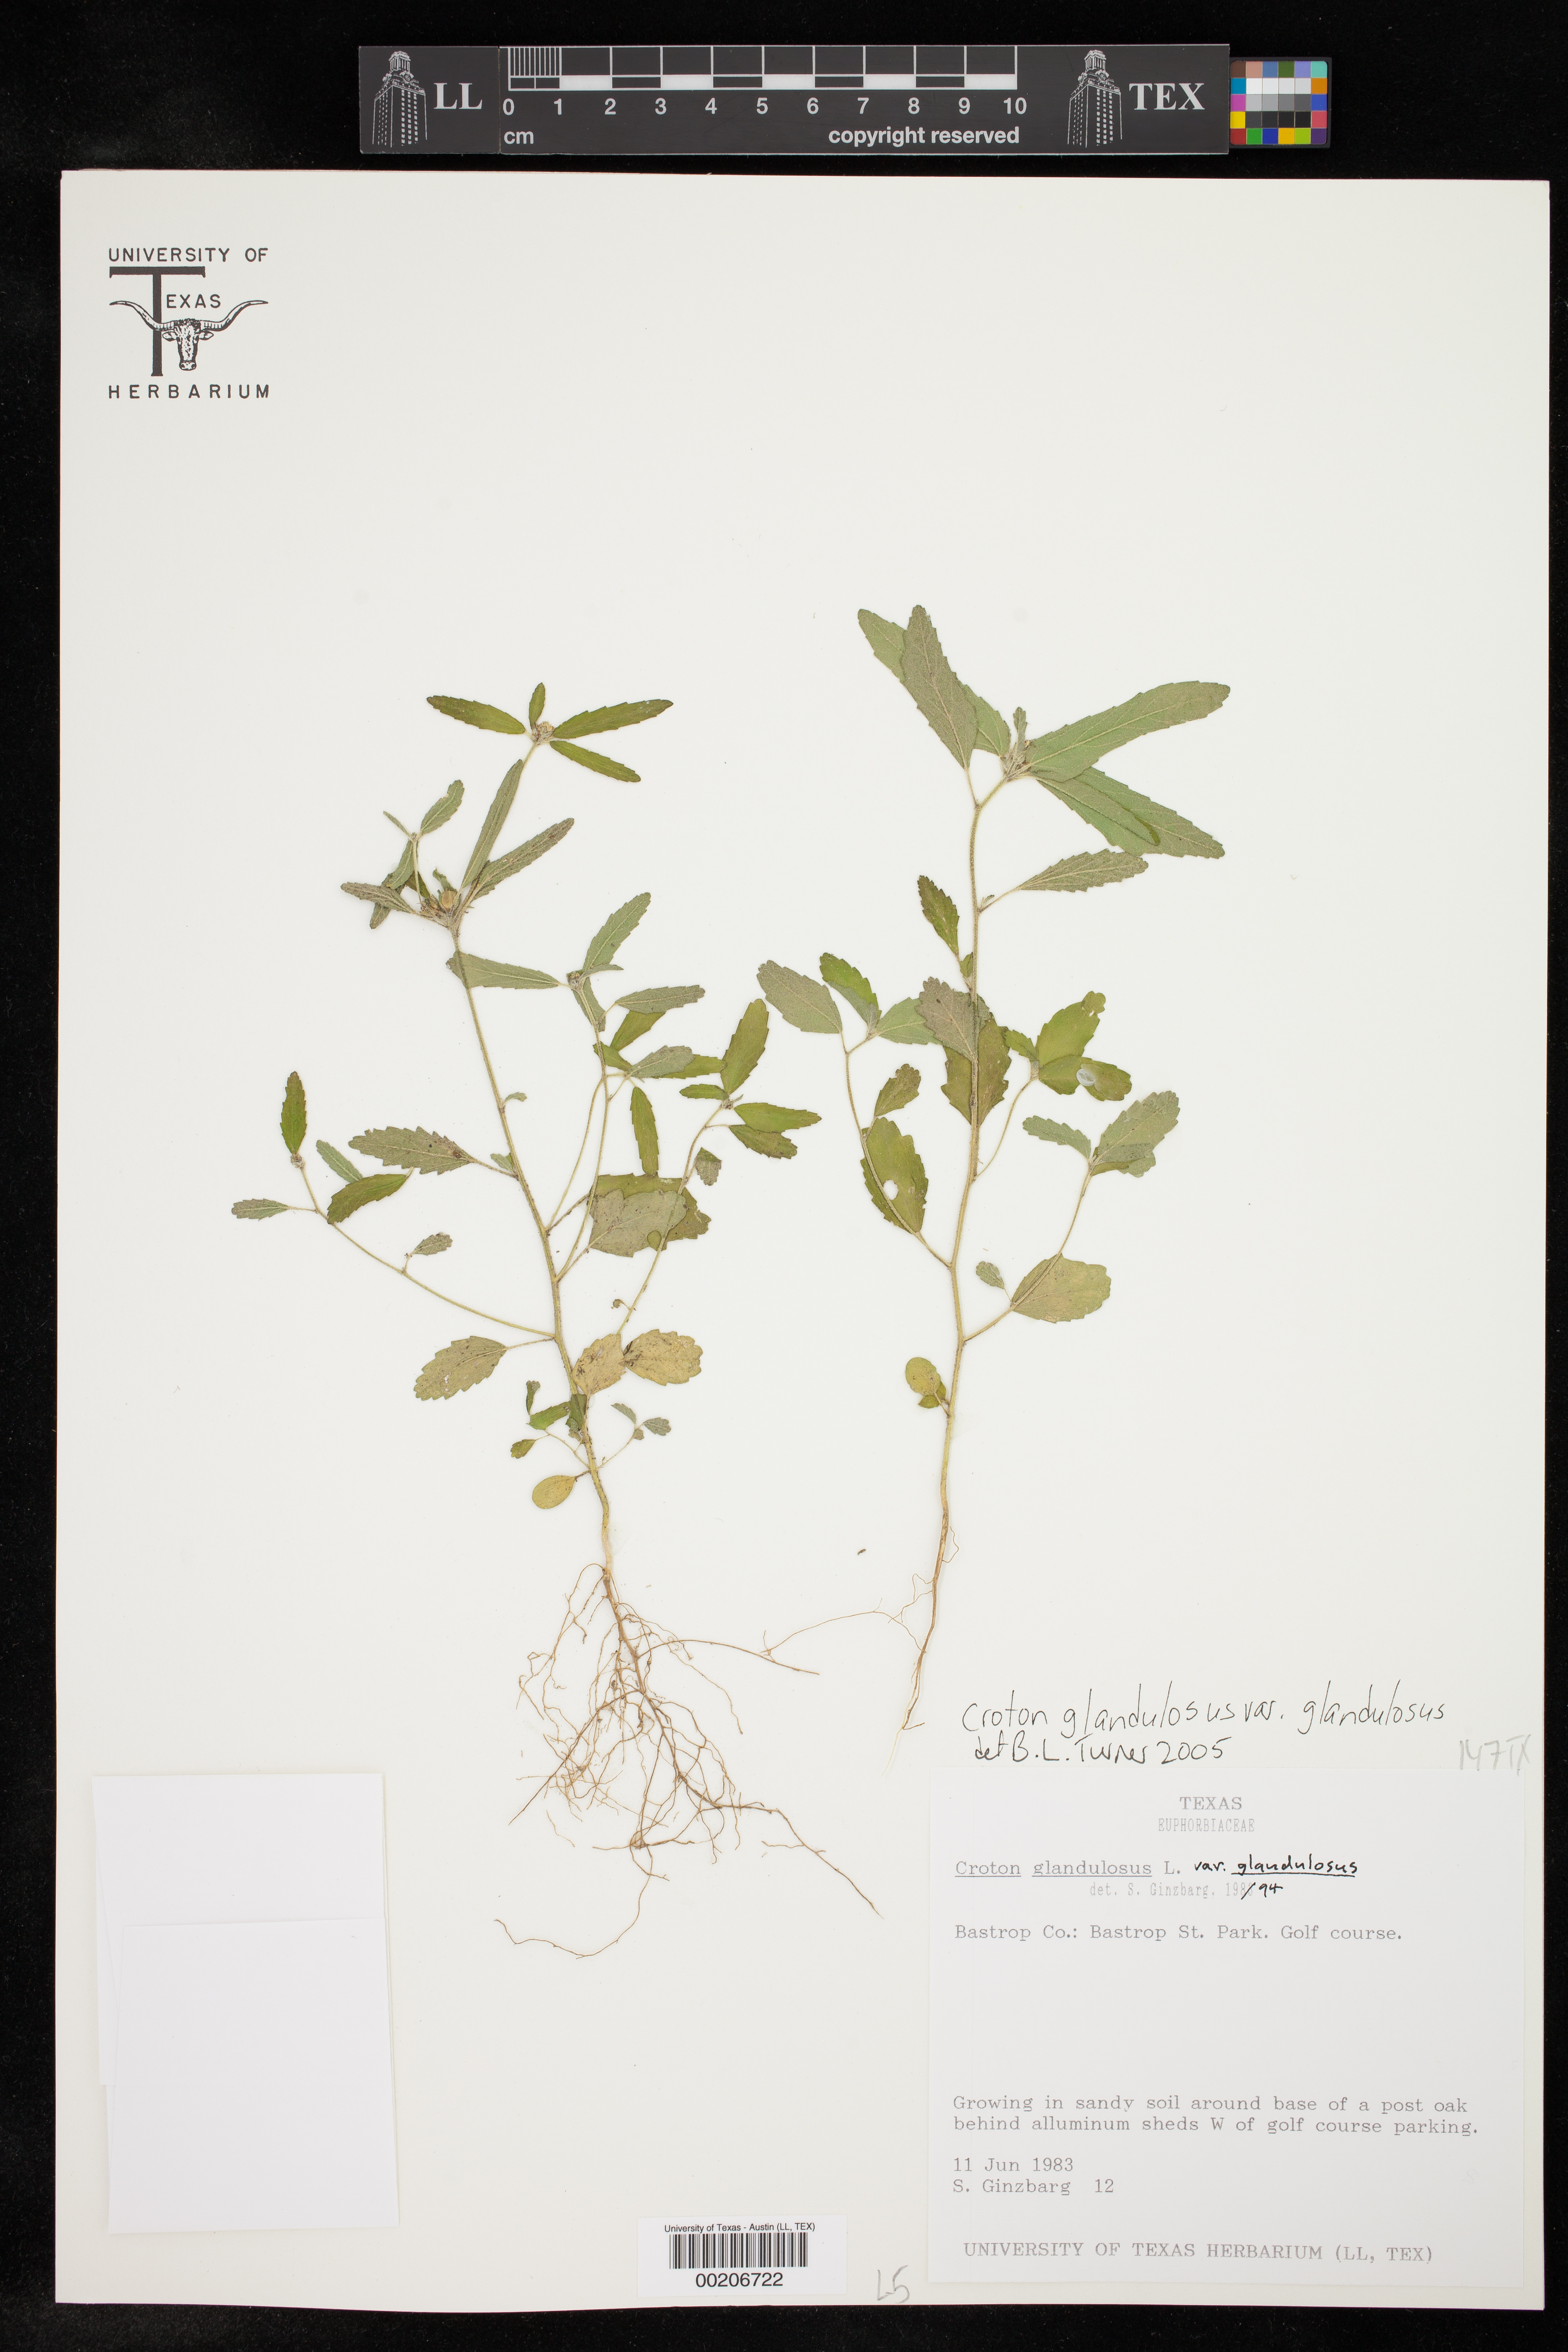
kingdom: Plantae
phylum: Tracheophyta
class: Magnoliopsida
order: Malpighiales
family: Euphorbiaceae
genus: Croton
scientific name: Croton glandulosus
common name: Tropic croton
